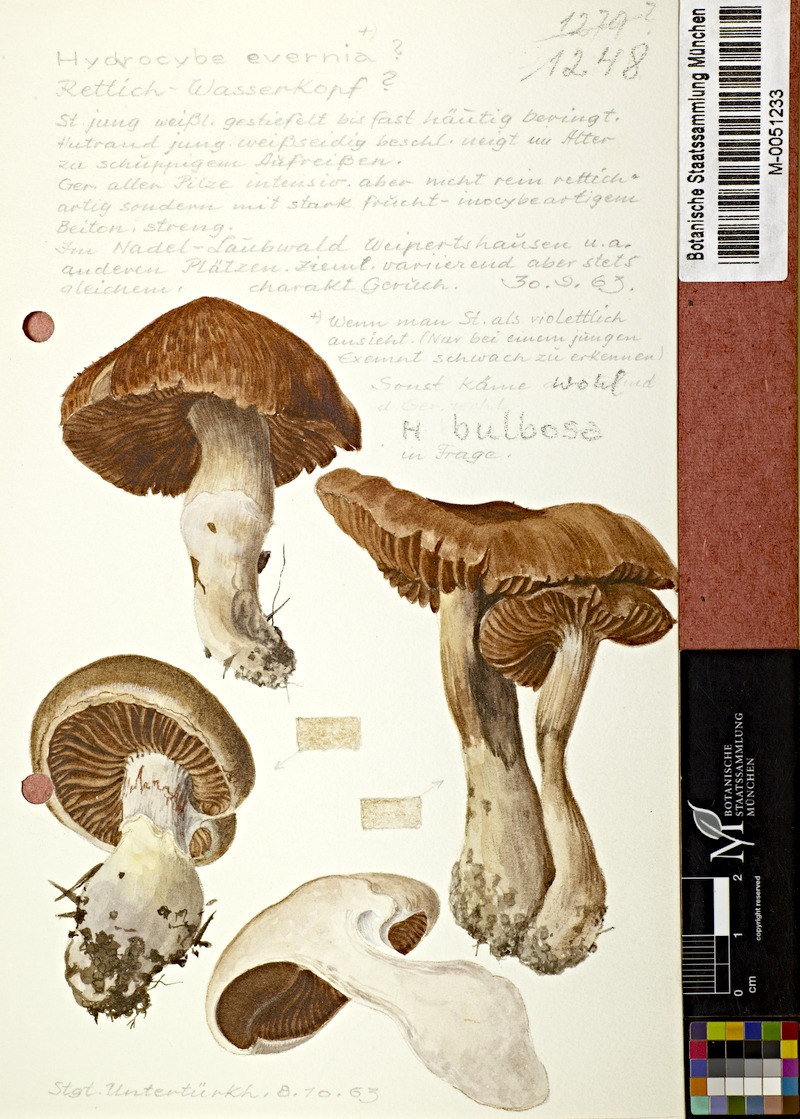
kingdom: Fungi
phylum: Basidiomycota
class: Agaricomycetes
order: Agaricales
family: Cortinariaceae
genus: Cortinarius
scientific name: Cortinarius evernius
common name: Silky webcap
